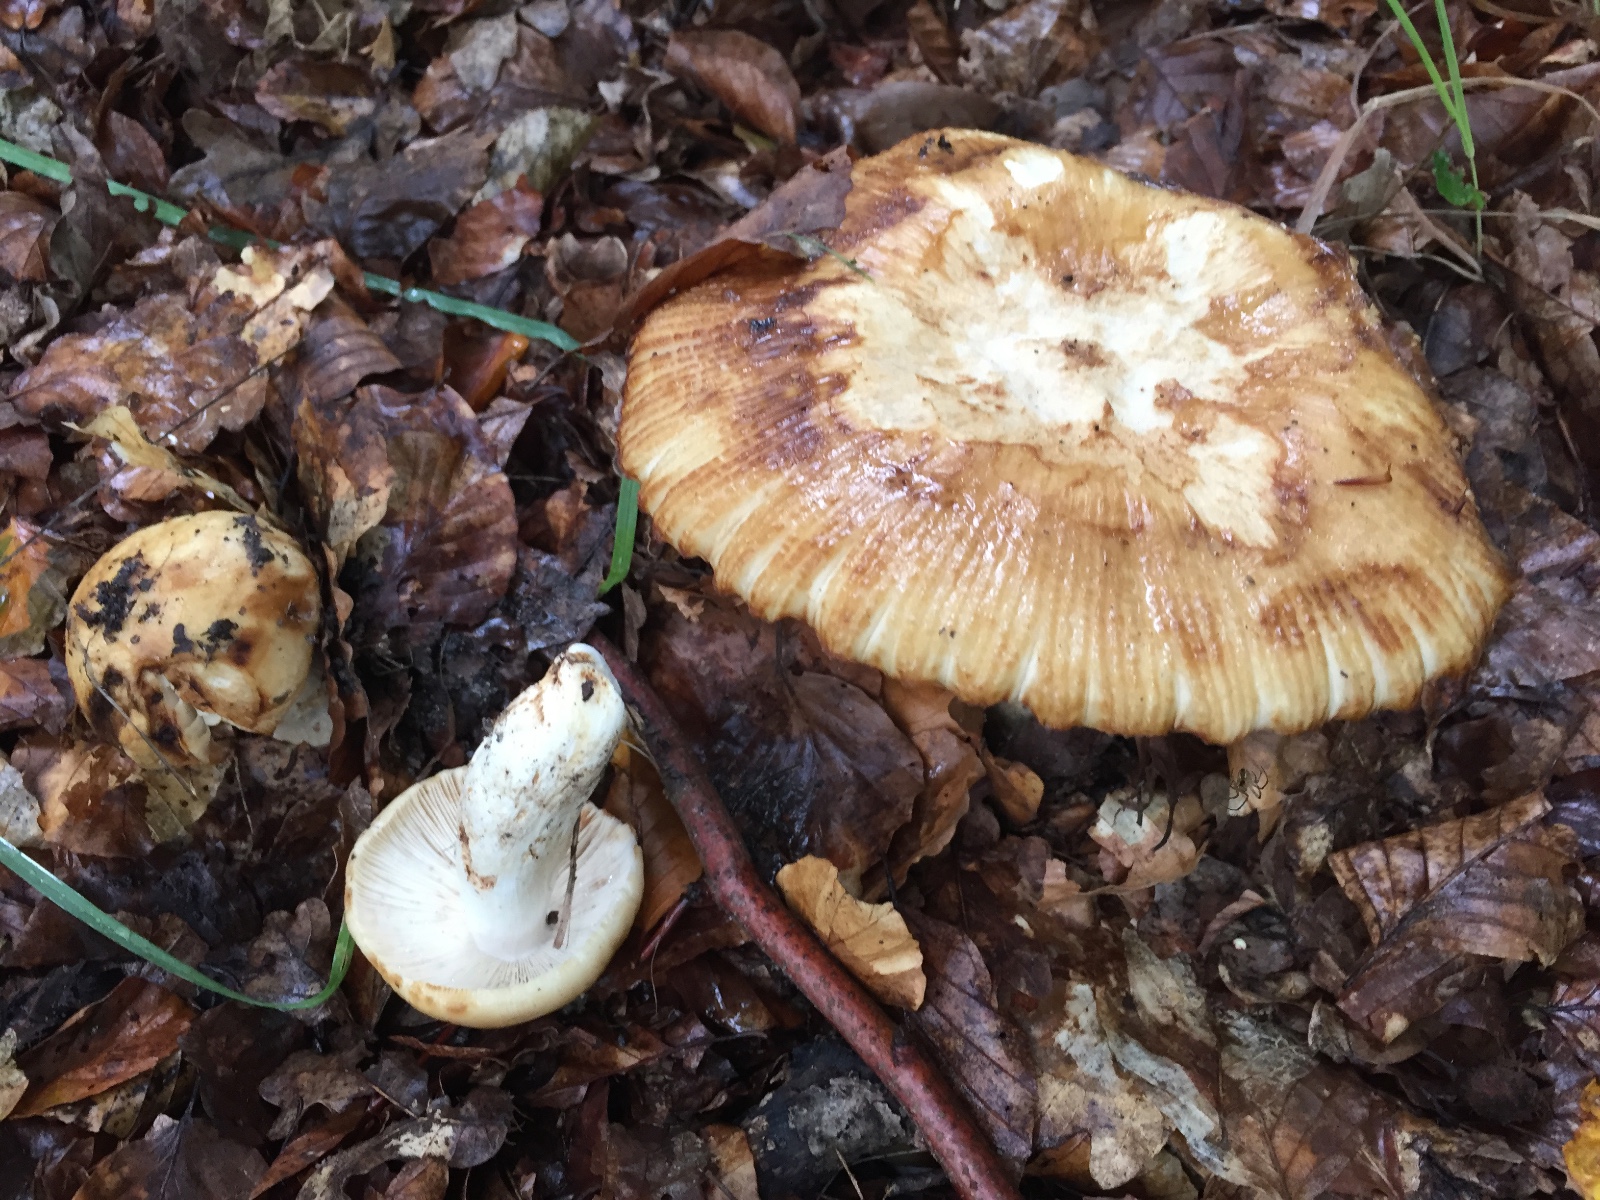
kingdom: Fungi
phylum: Basidiomycota
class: Agaricomycetes
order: Russulales
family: Russulaceae
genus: Russula
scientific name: Russula foetens
